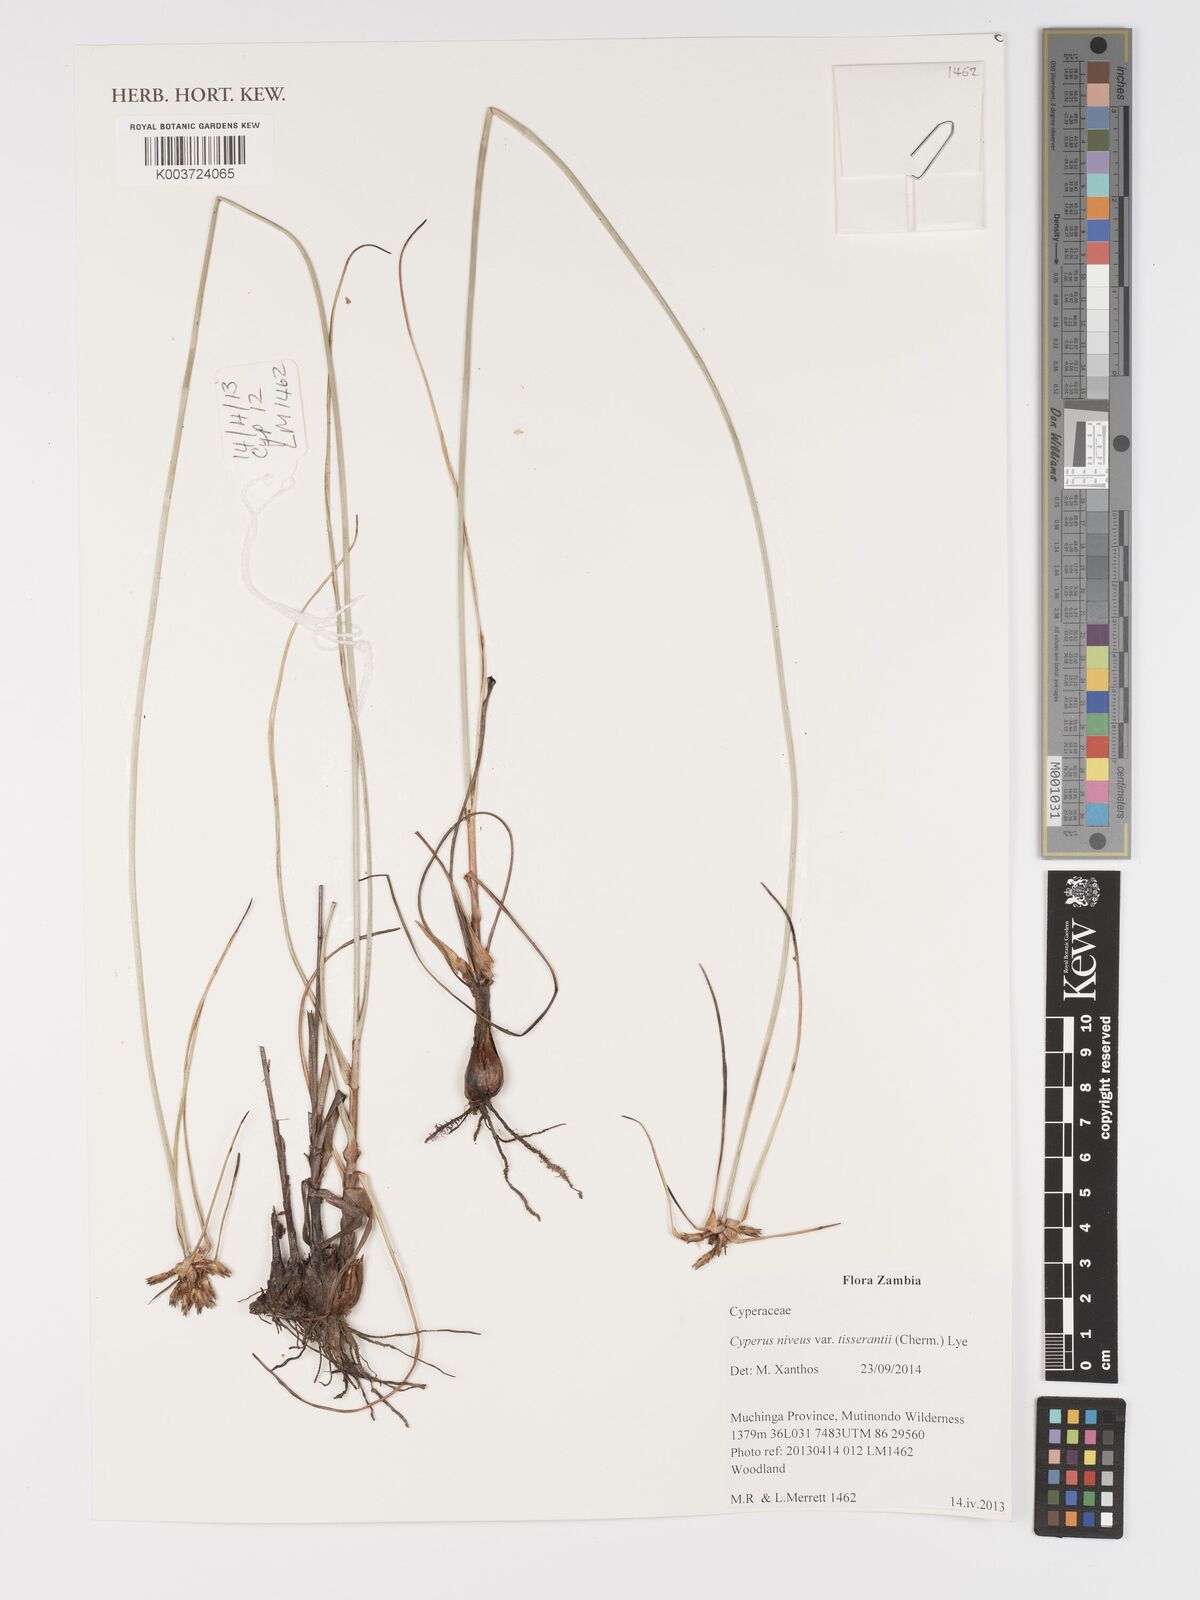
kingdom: Plantae
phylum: Tracheophyta
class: Liliopsida
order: Poales
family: Cyperaceae
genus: Cyperus
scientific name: Cyperus niveus
